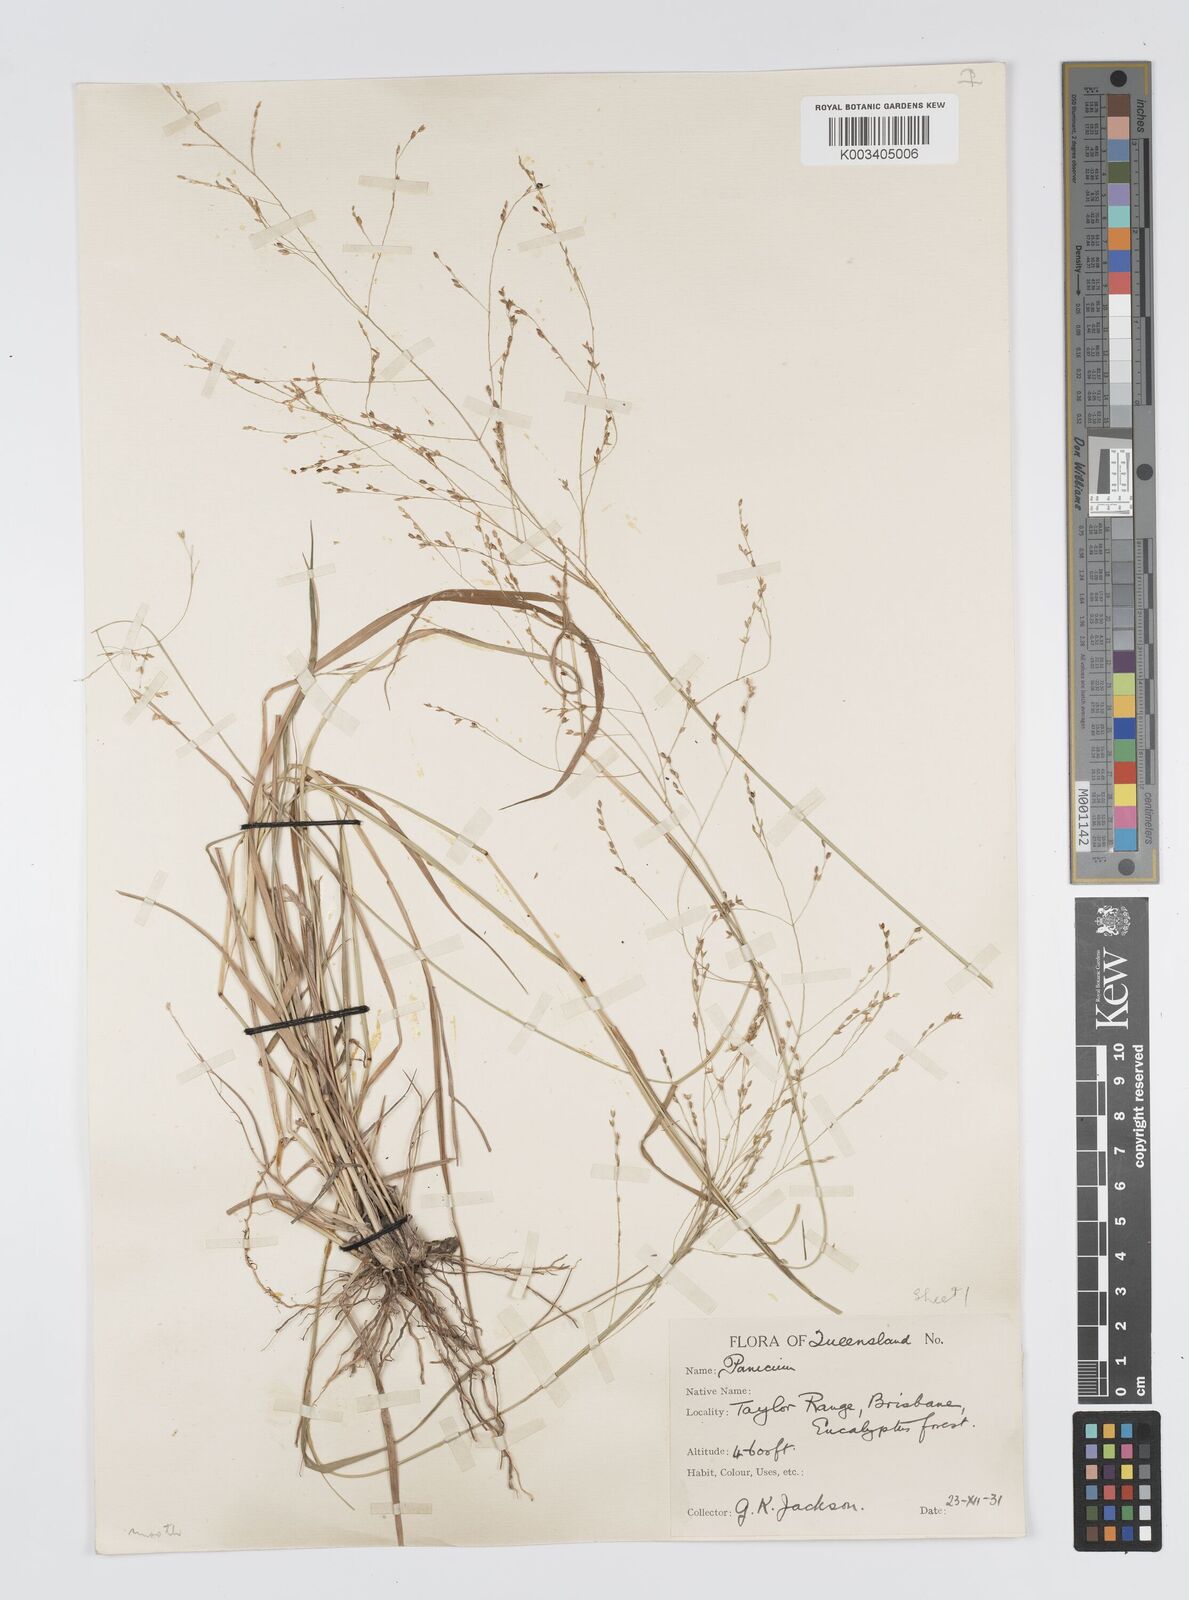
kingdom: Plantae
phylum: Tracheophyta
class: Liliopsida
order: Poales
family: Poaceae
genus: Panicum
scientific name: Panicum effusum
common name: Hairy panic grass
